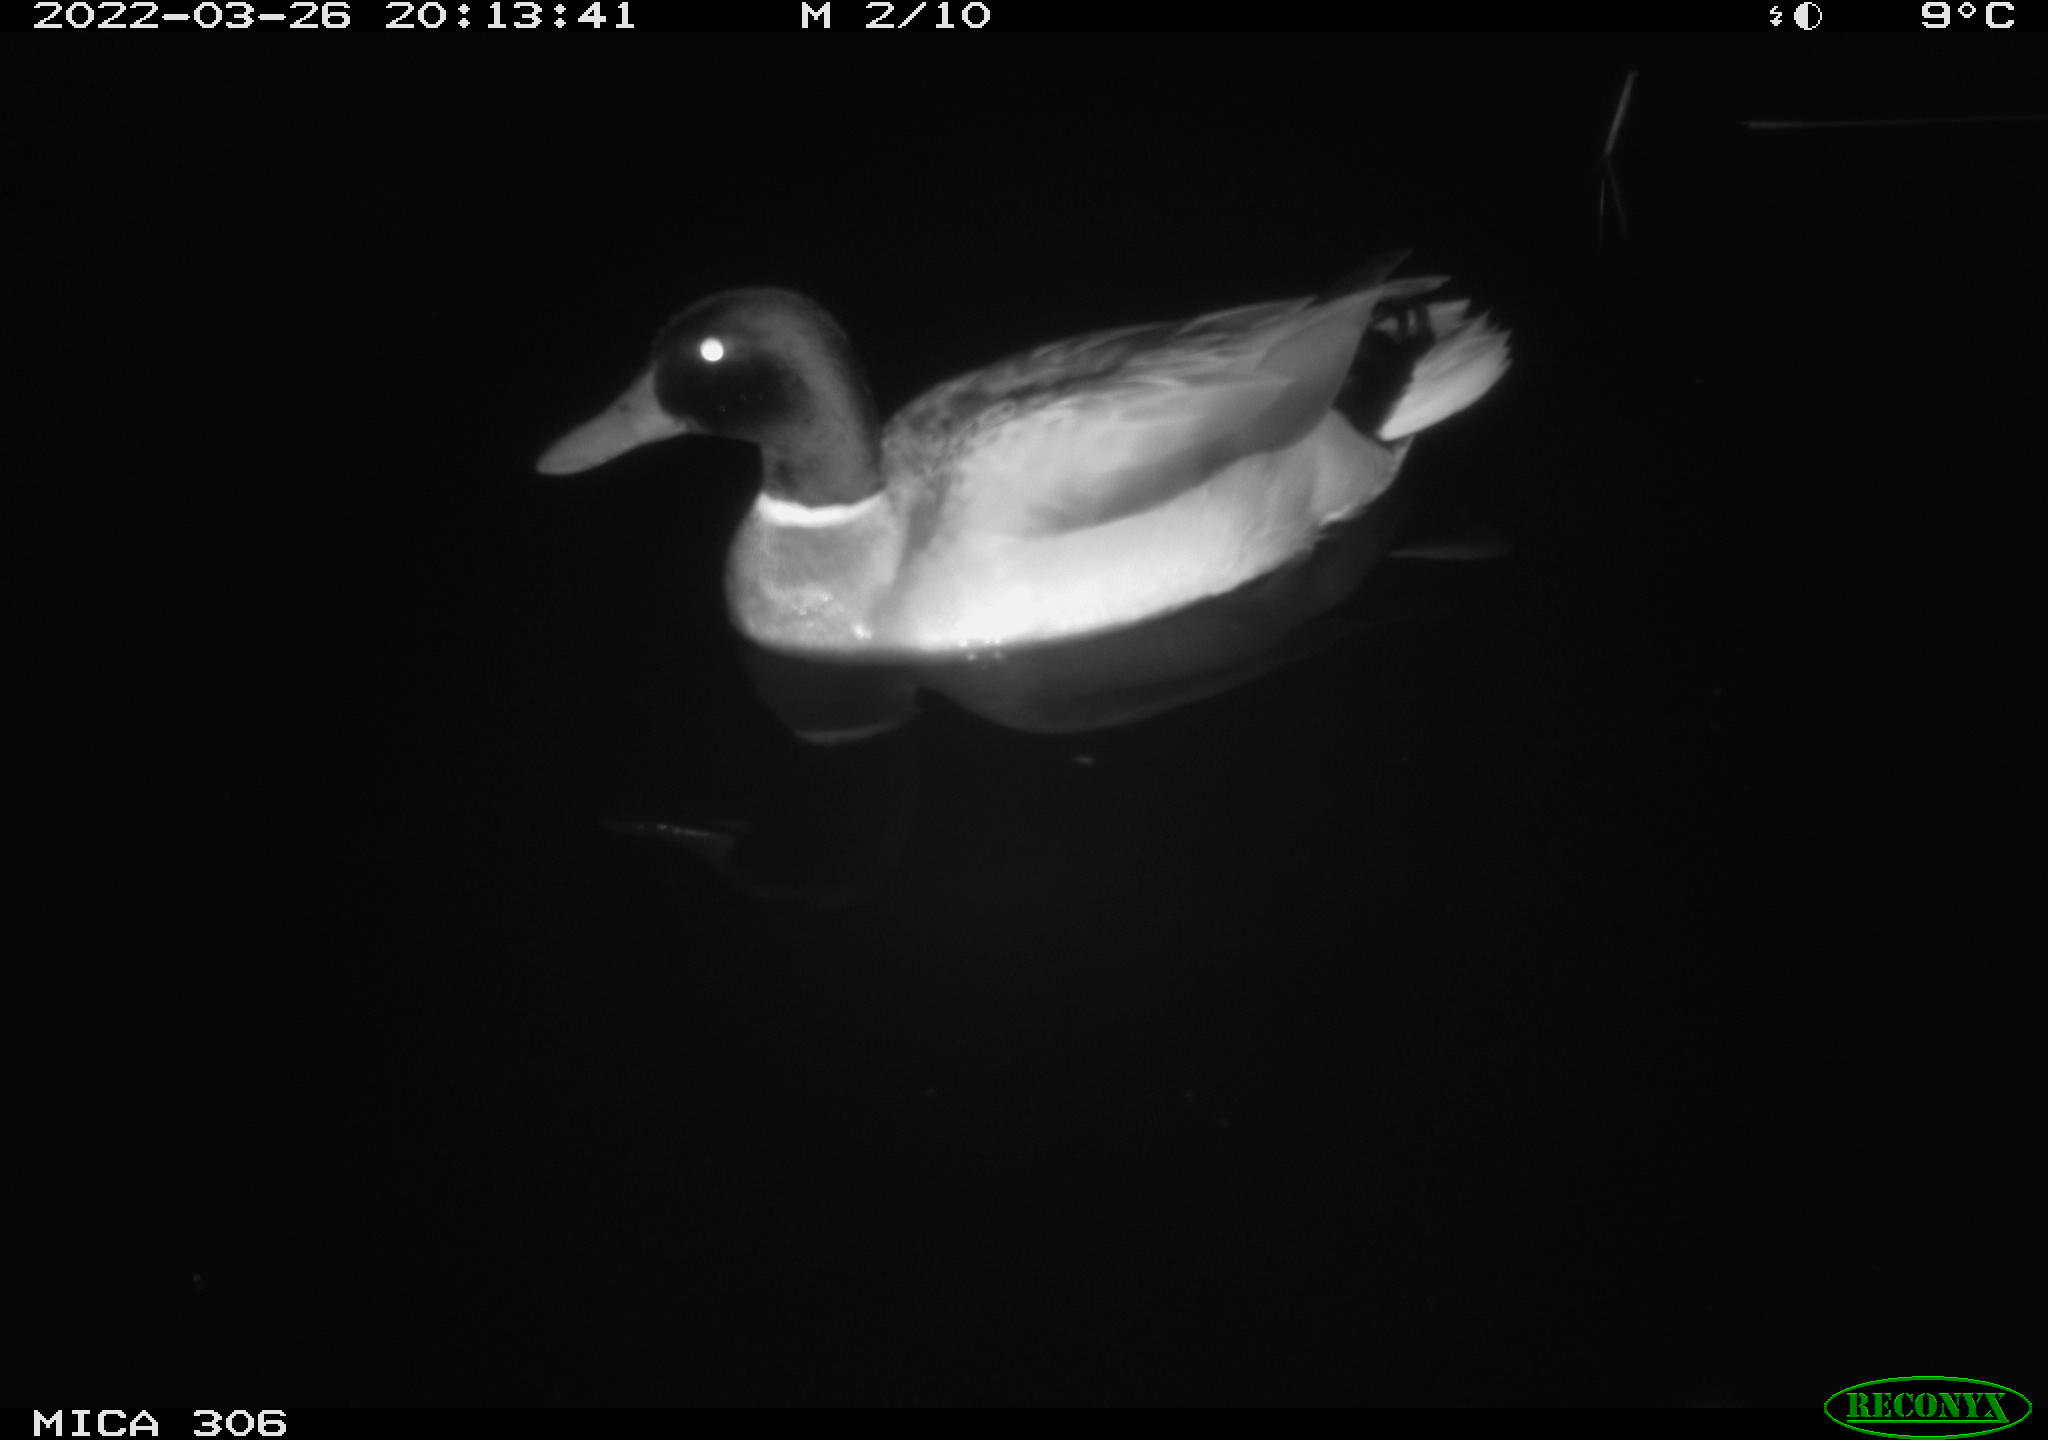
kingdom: Animalia
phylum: Chordata
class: Aves
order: Anseriformes
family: Anatidae
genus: Anas
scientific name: Anas
